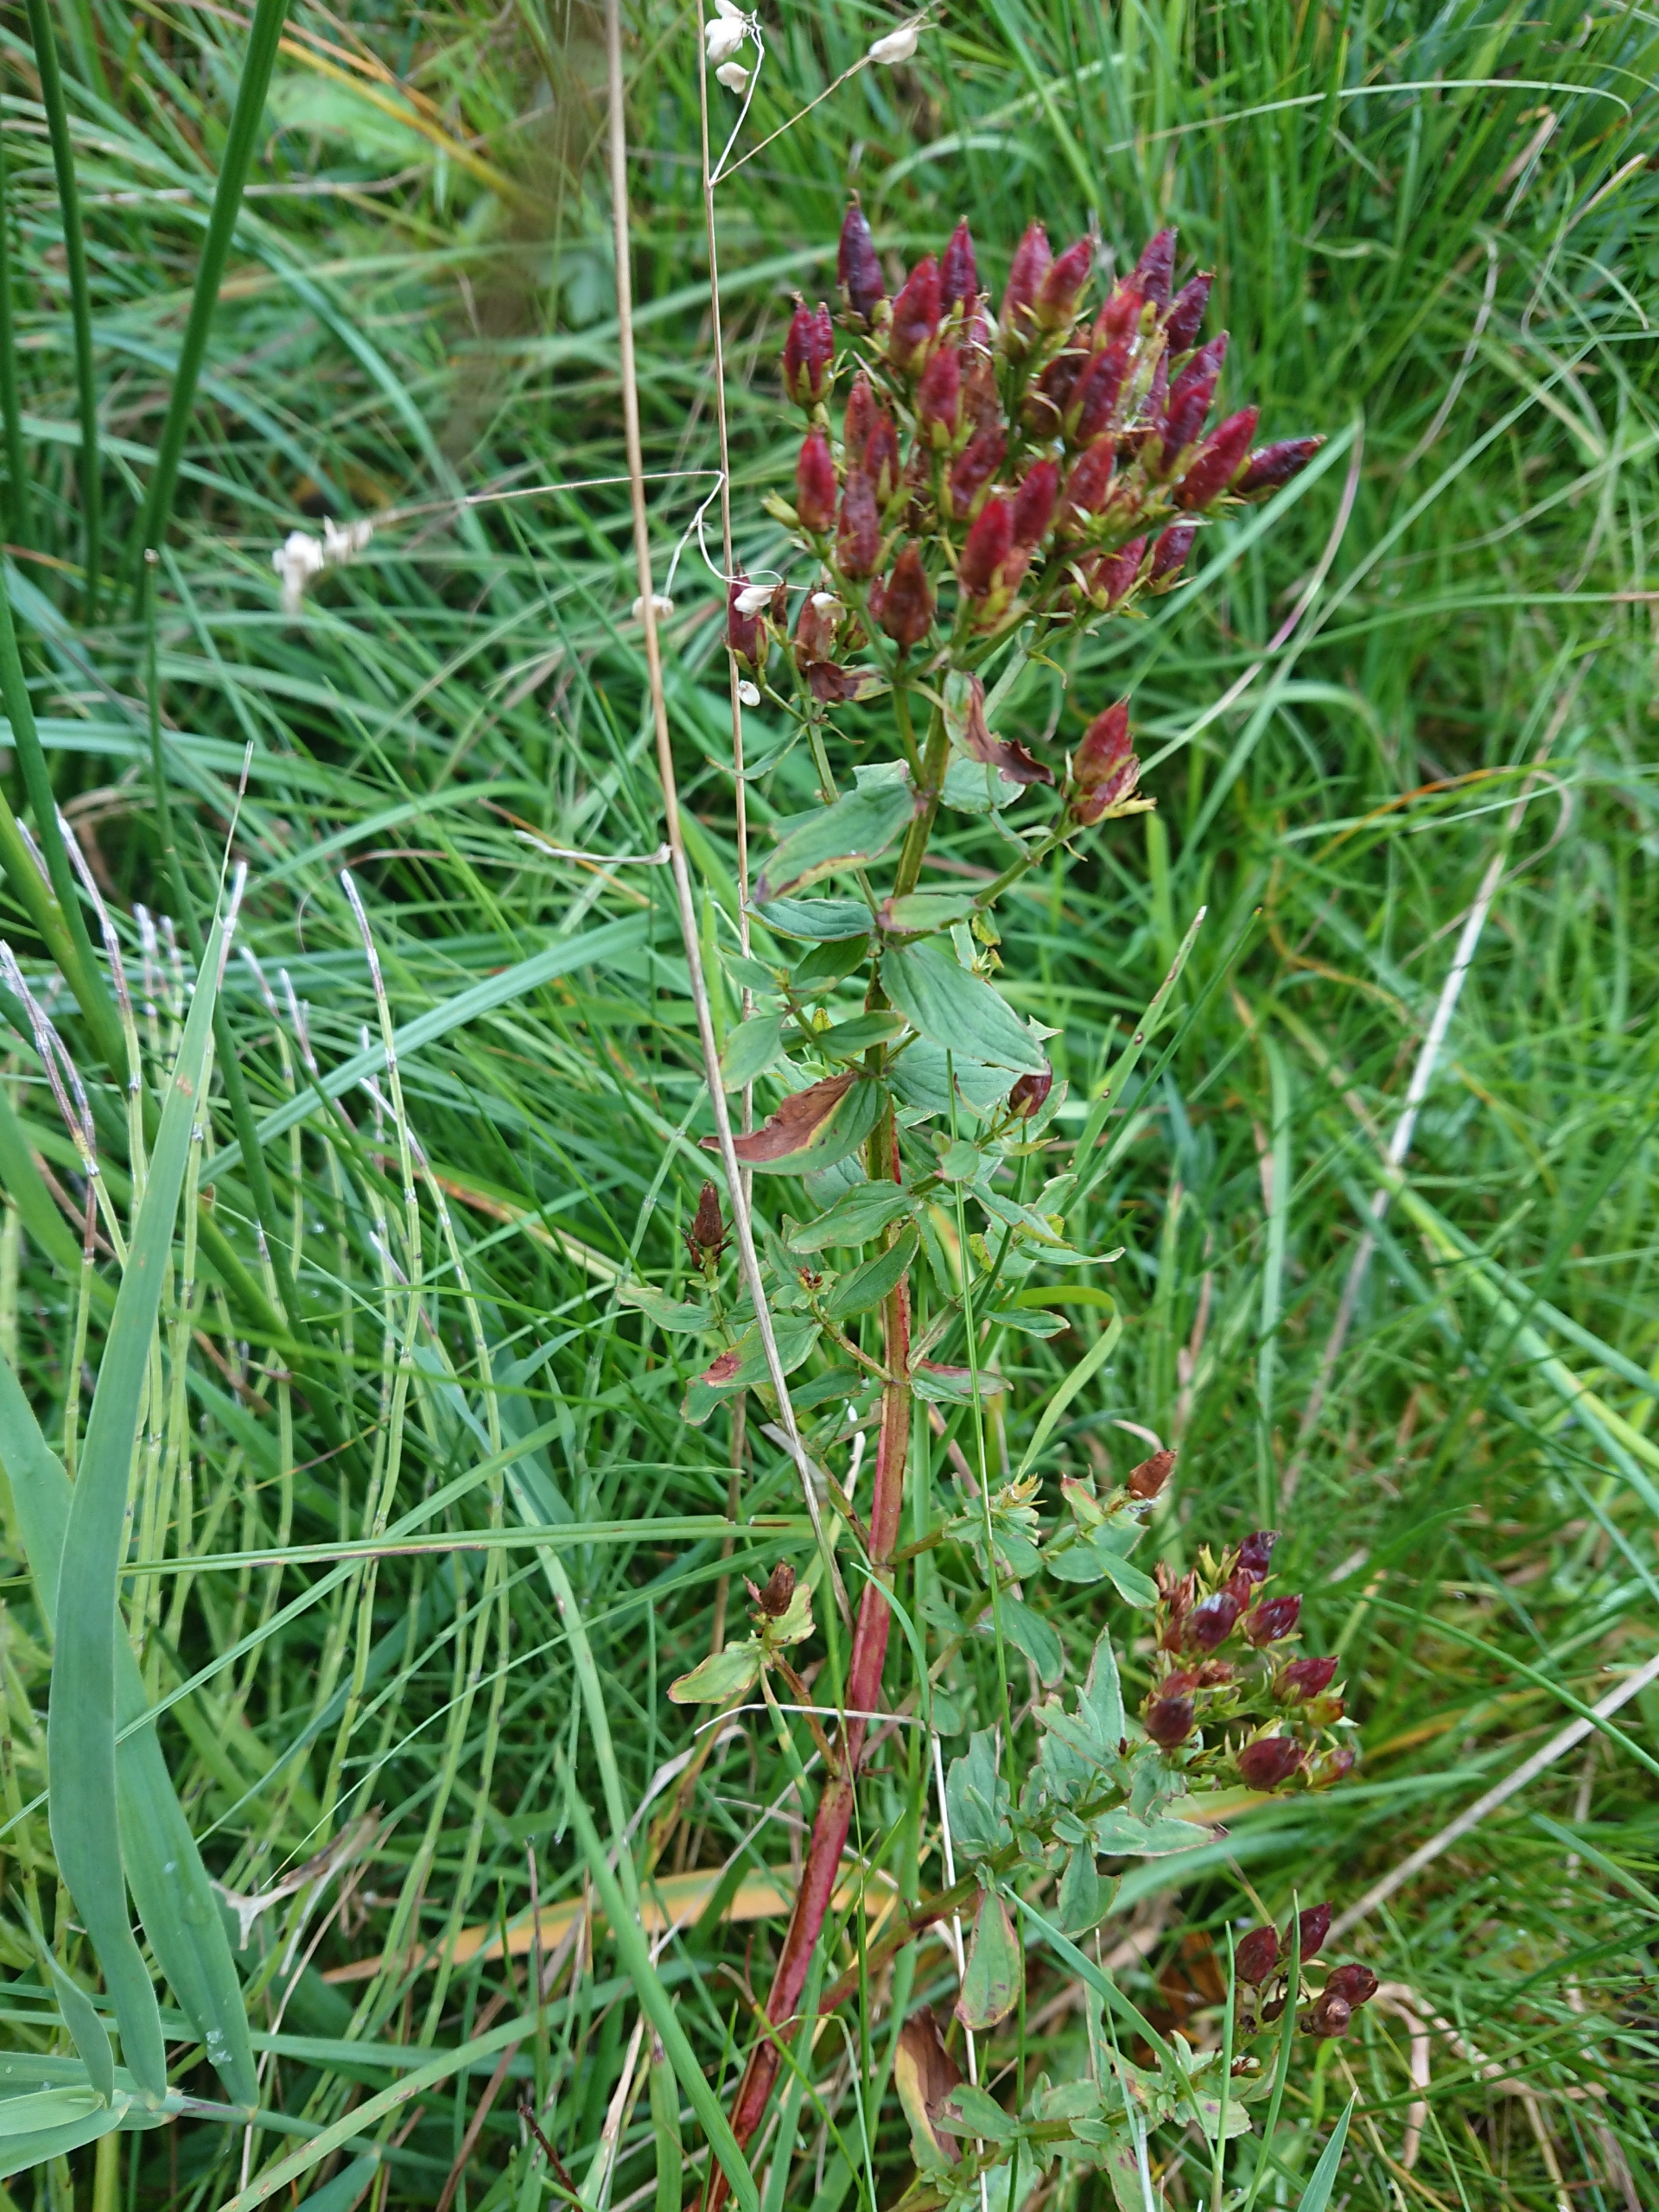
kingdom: Plantae
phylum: Tracheophyta
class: Magnoliopsida
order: Malpighiales
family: Hypericaceae
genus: Hypericum
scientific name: Hypericum tetrapterum
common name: Vinget perikon
